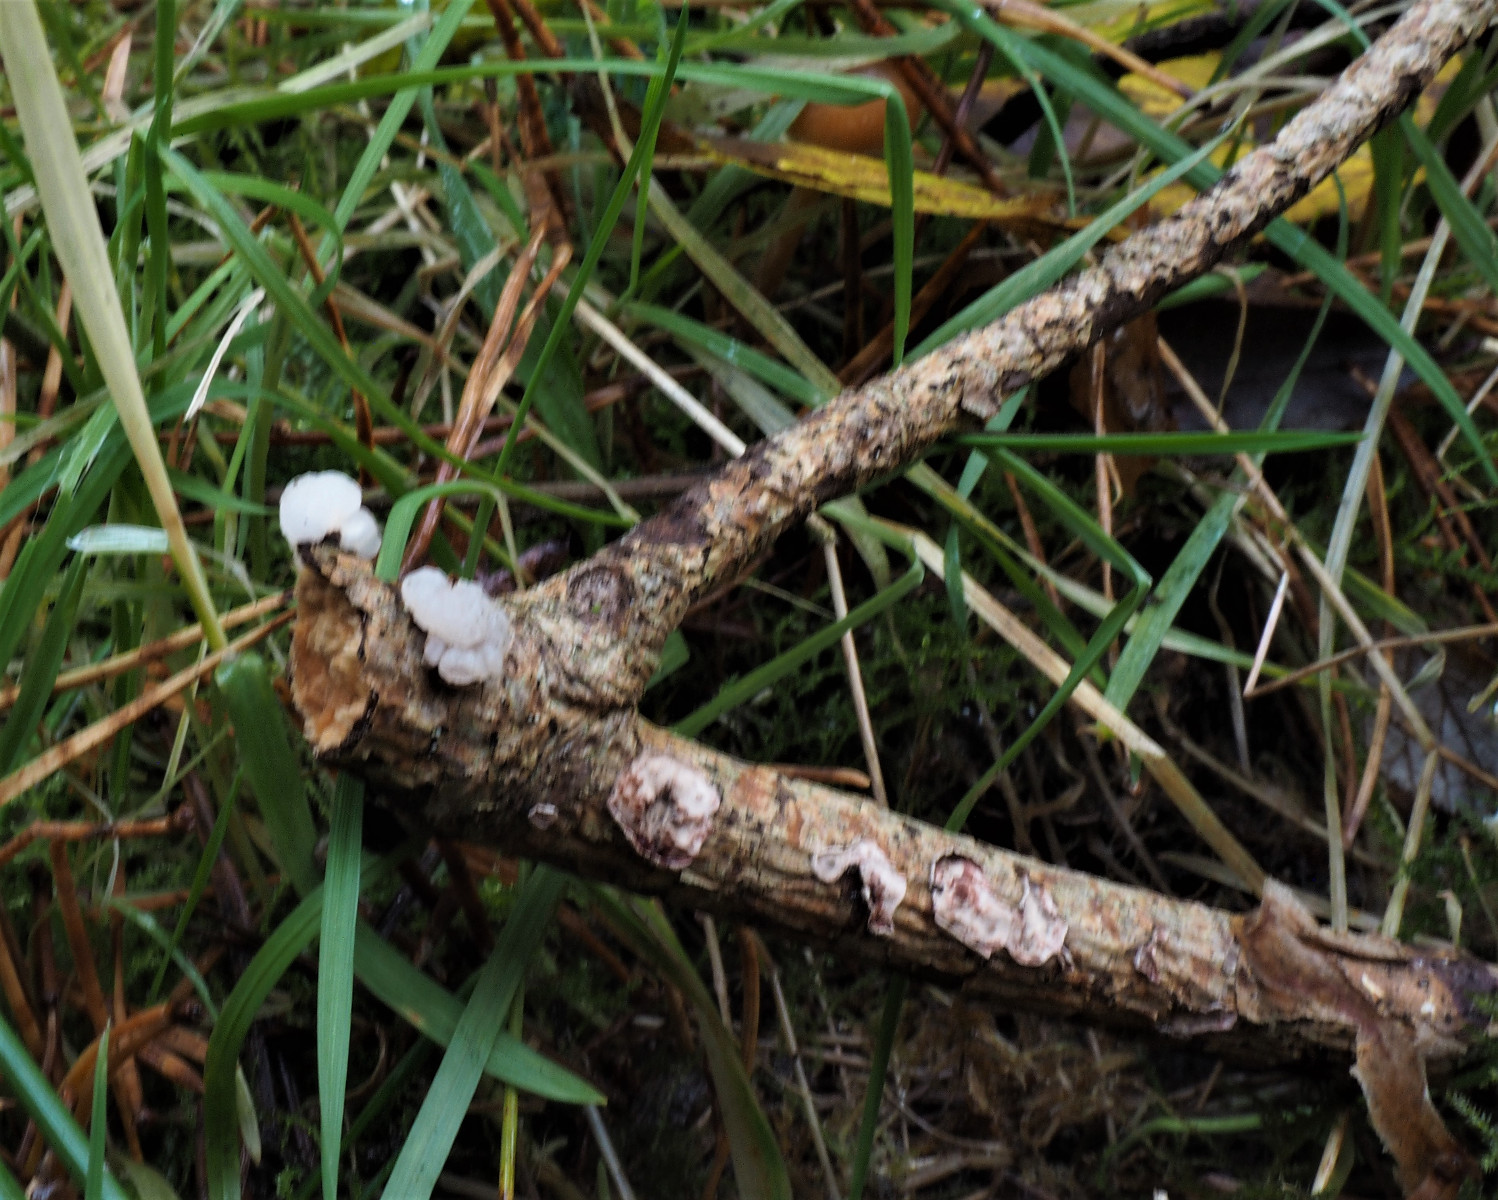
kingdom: Fungi
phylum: Basidiomycota
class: Tremellomycetes
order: Tremellales
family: Naemateliaceae
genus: Naematelia
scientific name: Naematelia encephala
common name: fyrre-bævresvamp
